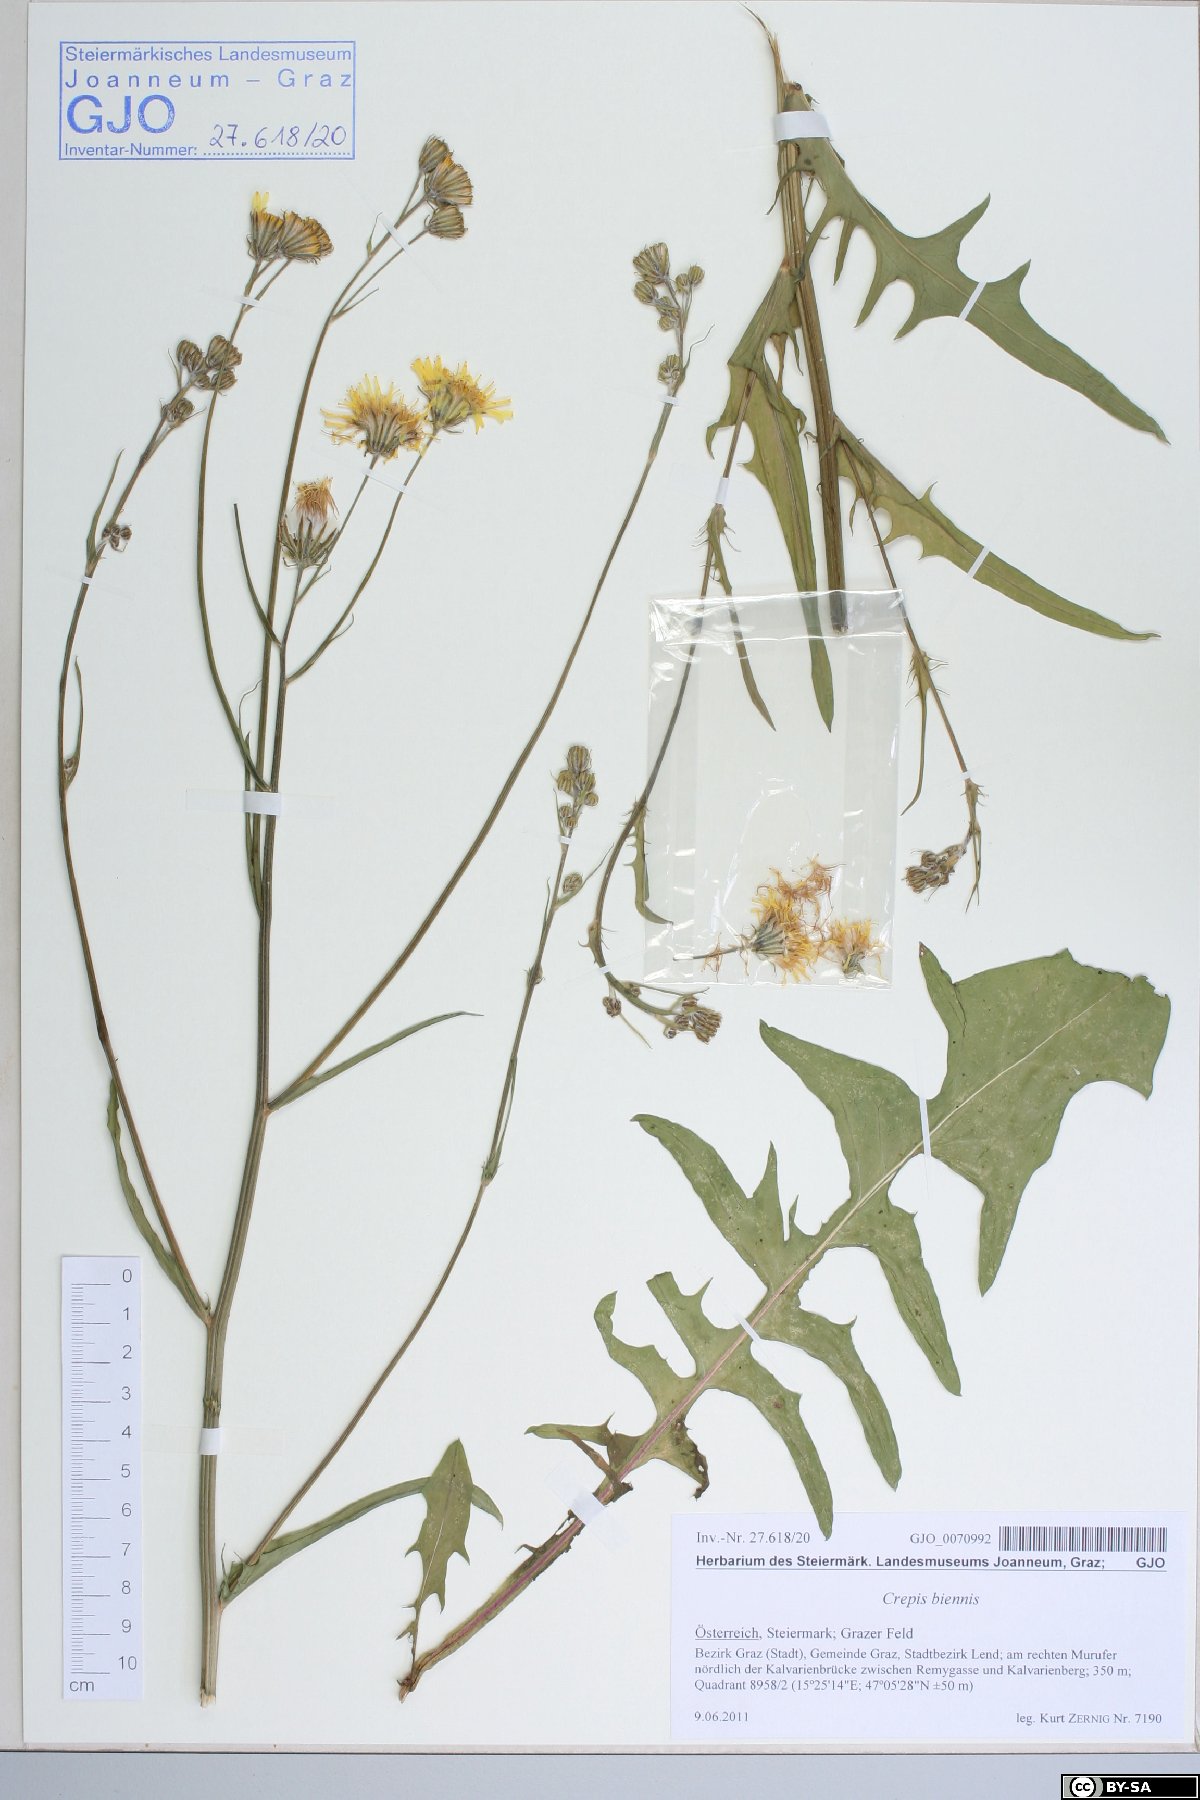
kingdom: Plantae
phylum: Tracheophyta
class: Magnoliopsida
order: Asterales
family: Asteraceae
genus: Crepis
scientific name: Crepis biennis
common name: Rough hawk's-beard
